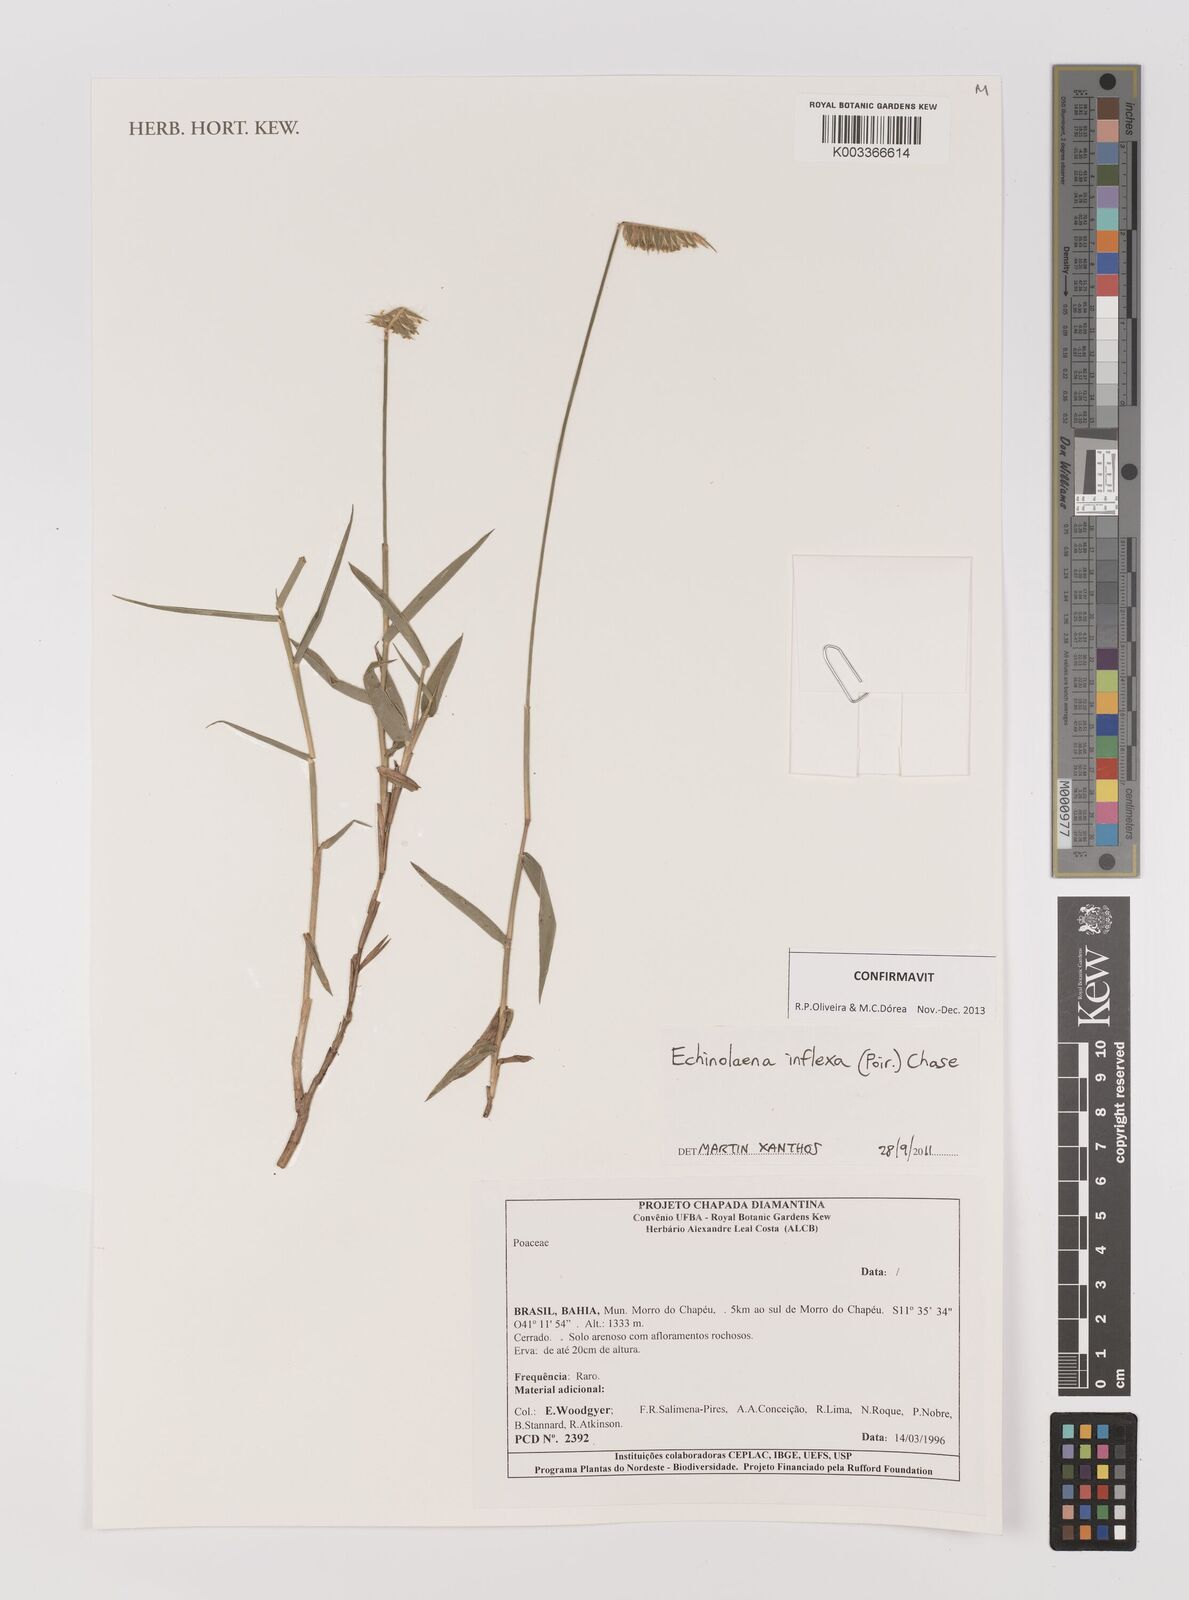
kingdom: Plantae
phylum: Tracheophyta
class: Liliopsida
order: Poales
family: Poaceae
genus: Echinolaena
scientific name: Echinolaena inflexa
